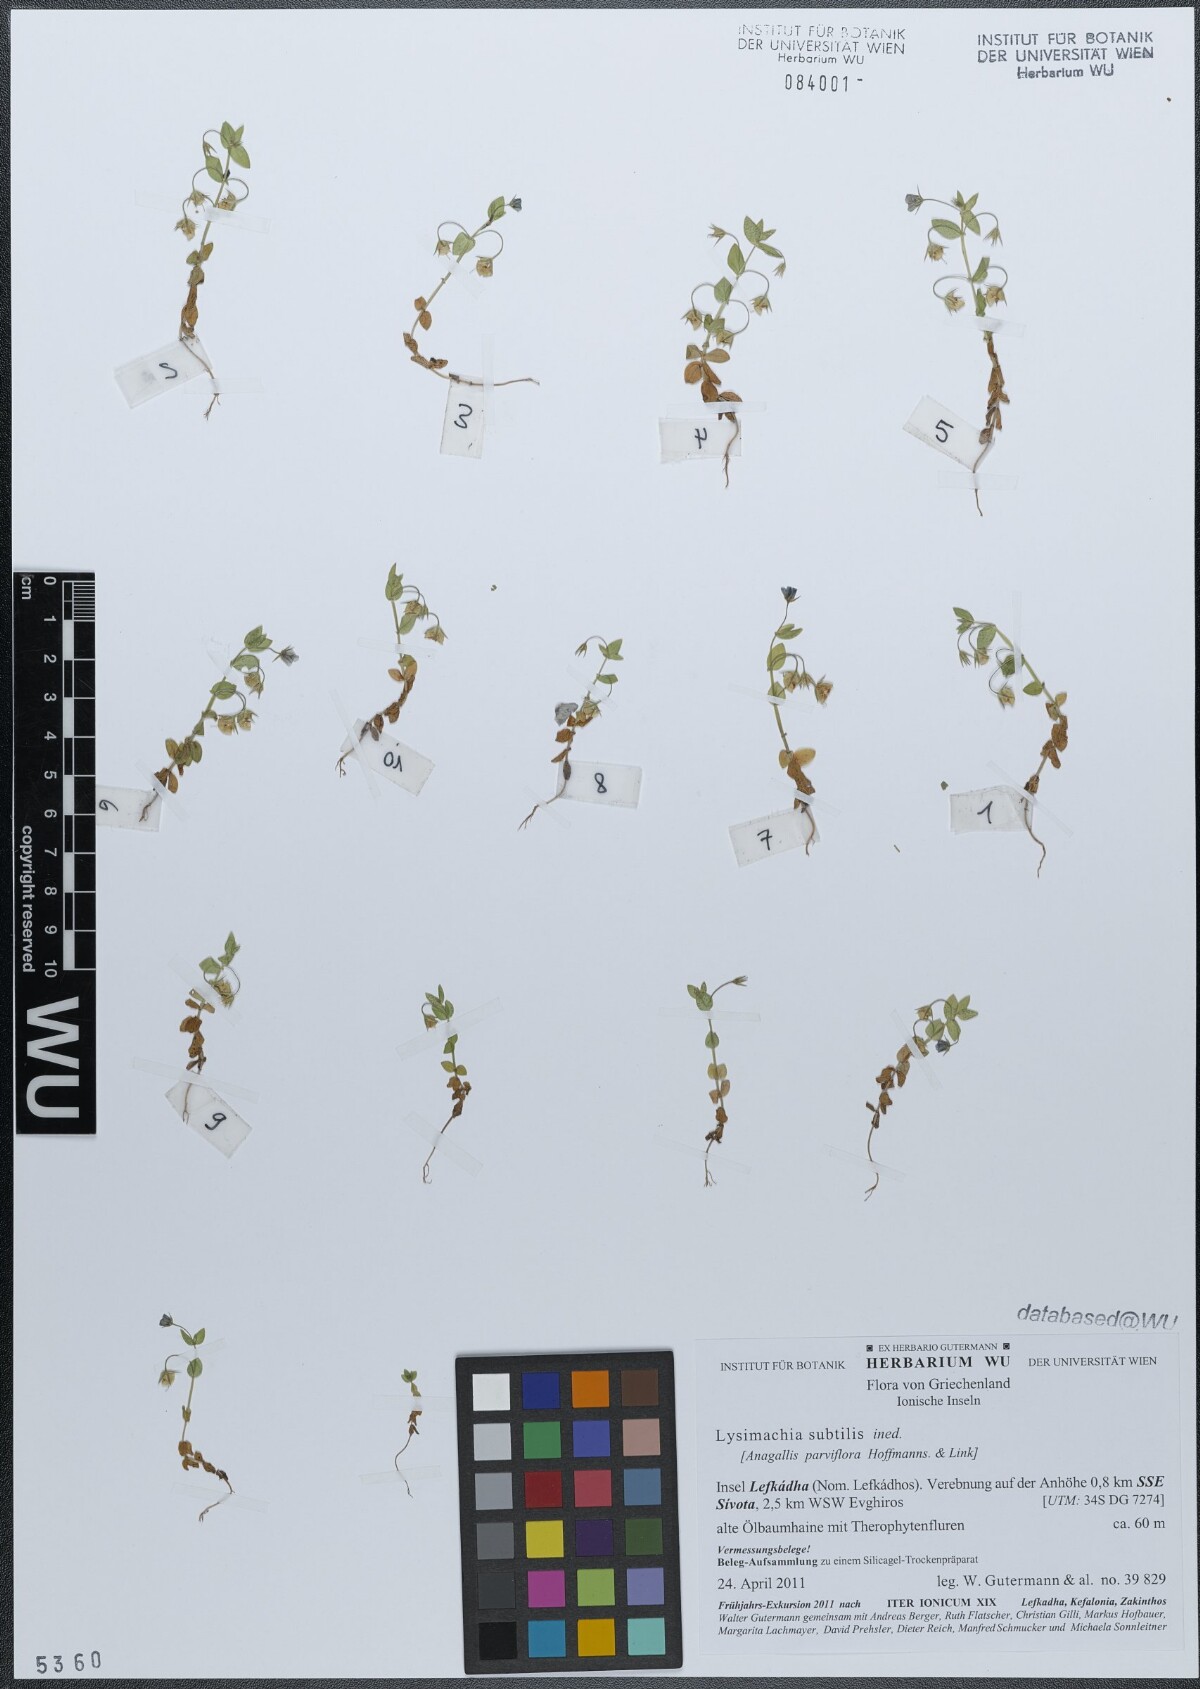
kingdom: Plantae
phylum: Tracheophyta
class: Magnoliopsida
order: Ericales
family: Primulaceae
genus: Lysimachia
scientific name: Lysimachia talaverae
